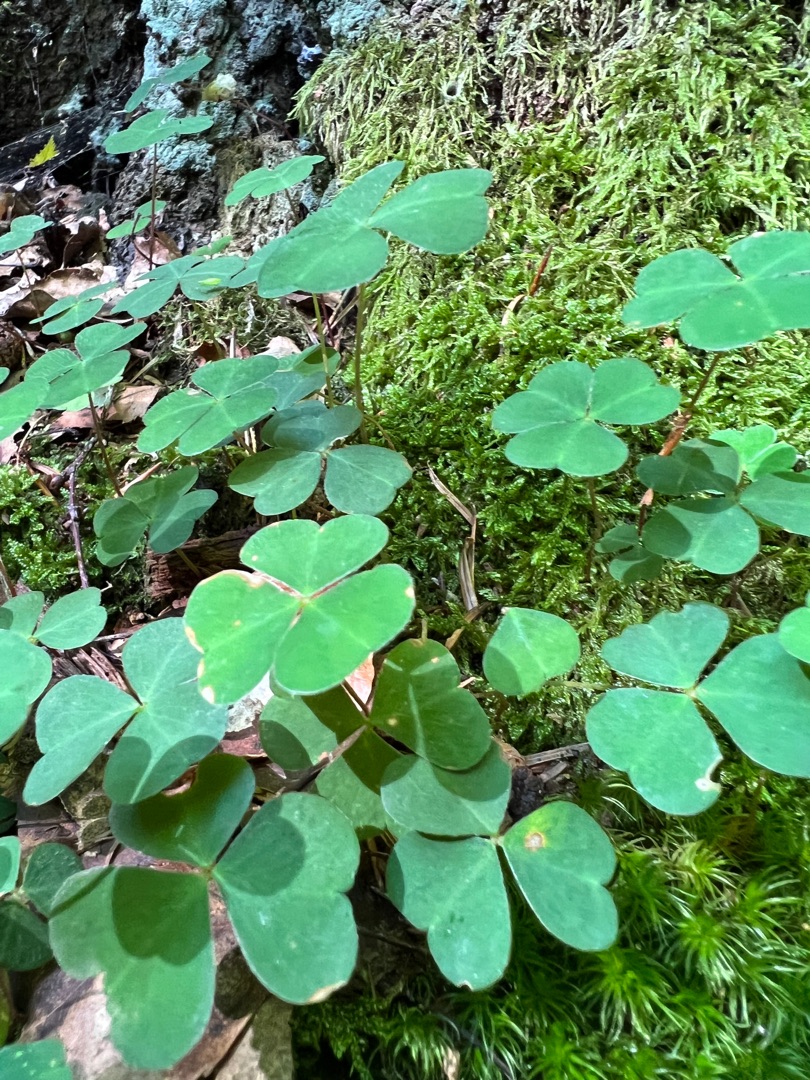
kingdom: Plantae
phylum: Tracheophyta
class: Magnoliopsida
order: Oxalidales
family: Oxalidaceae
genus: Oxalis
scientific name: Oxalis acetosella
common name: Skovsyre
